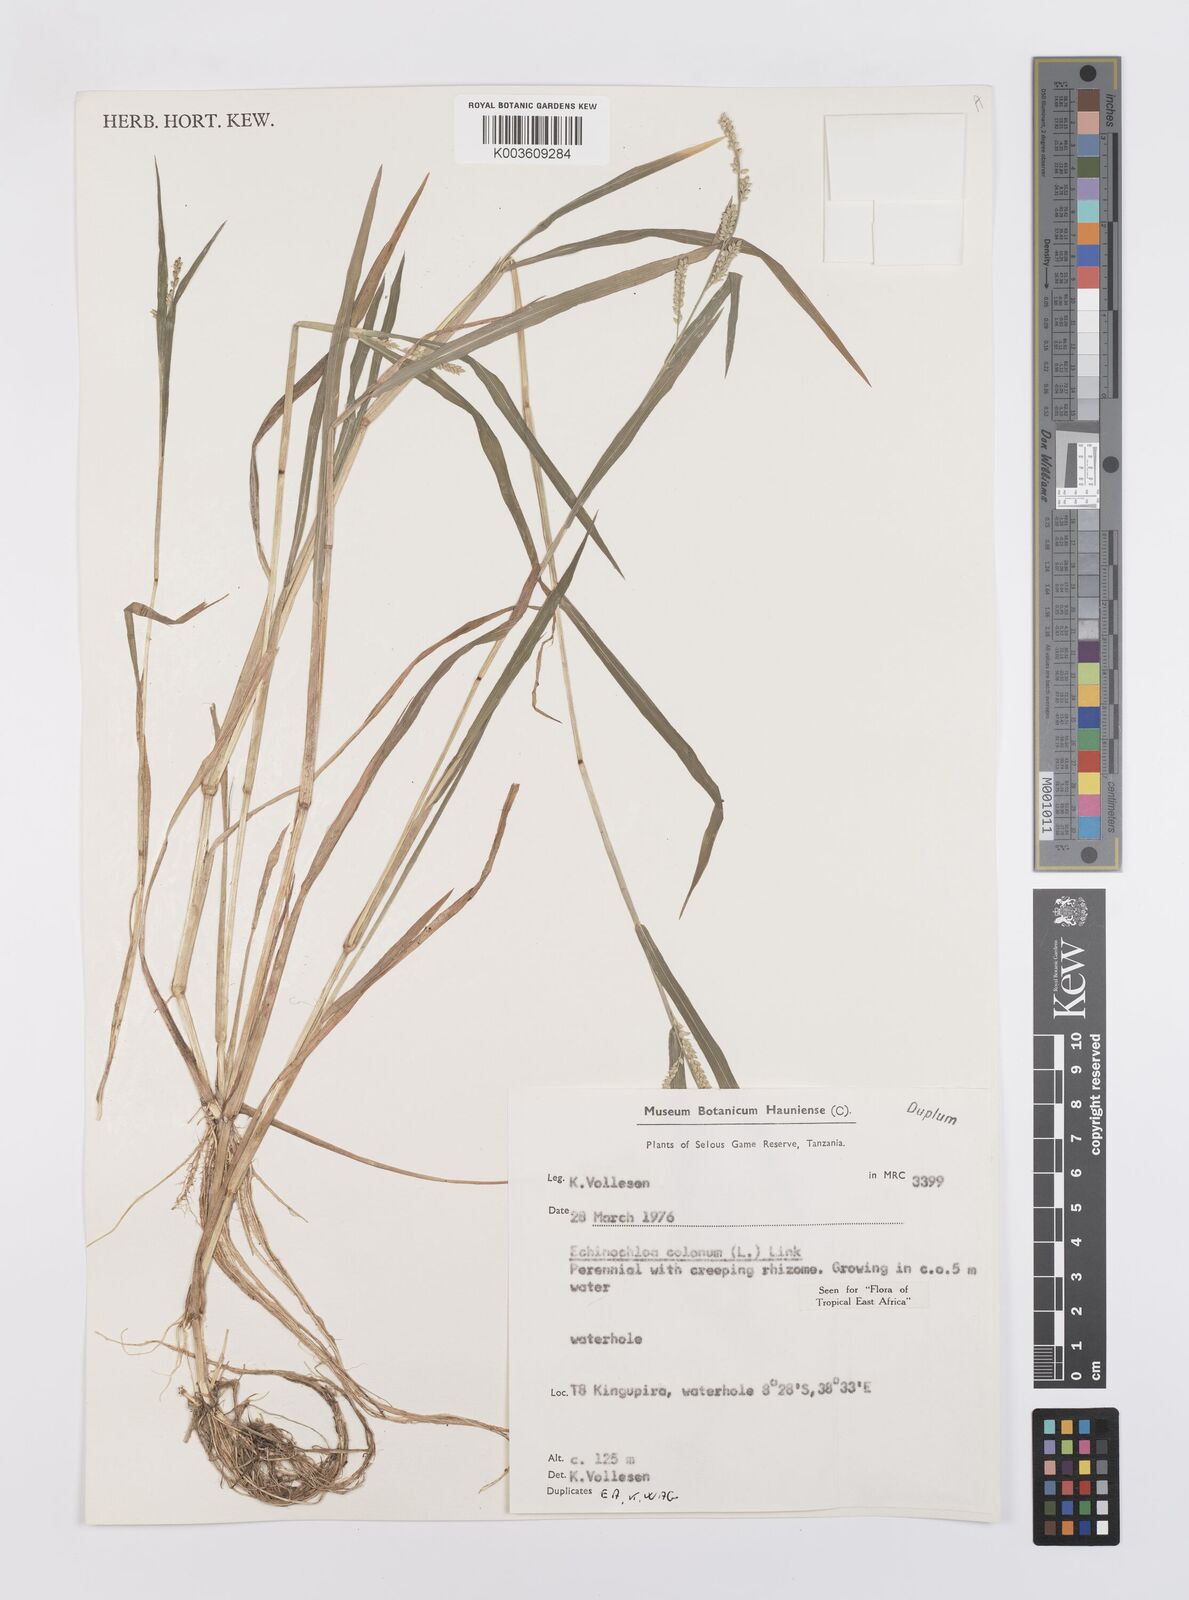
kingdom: Plantae
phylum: Tracheophyta
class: Liliopsida
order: Poales
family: Poaceae
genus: Echinochloa
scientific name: Echinochloa colonum
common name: Jungle rice
